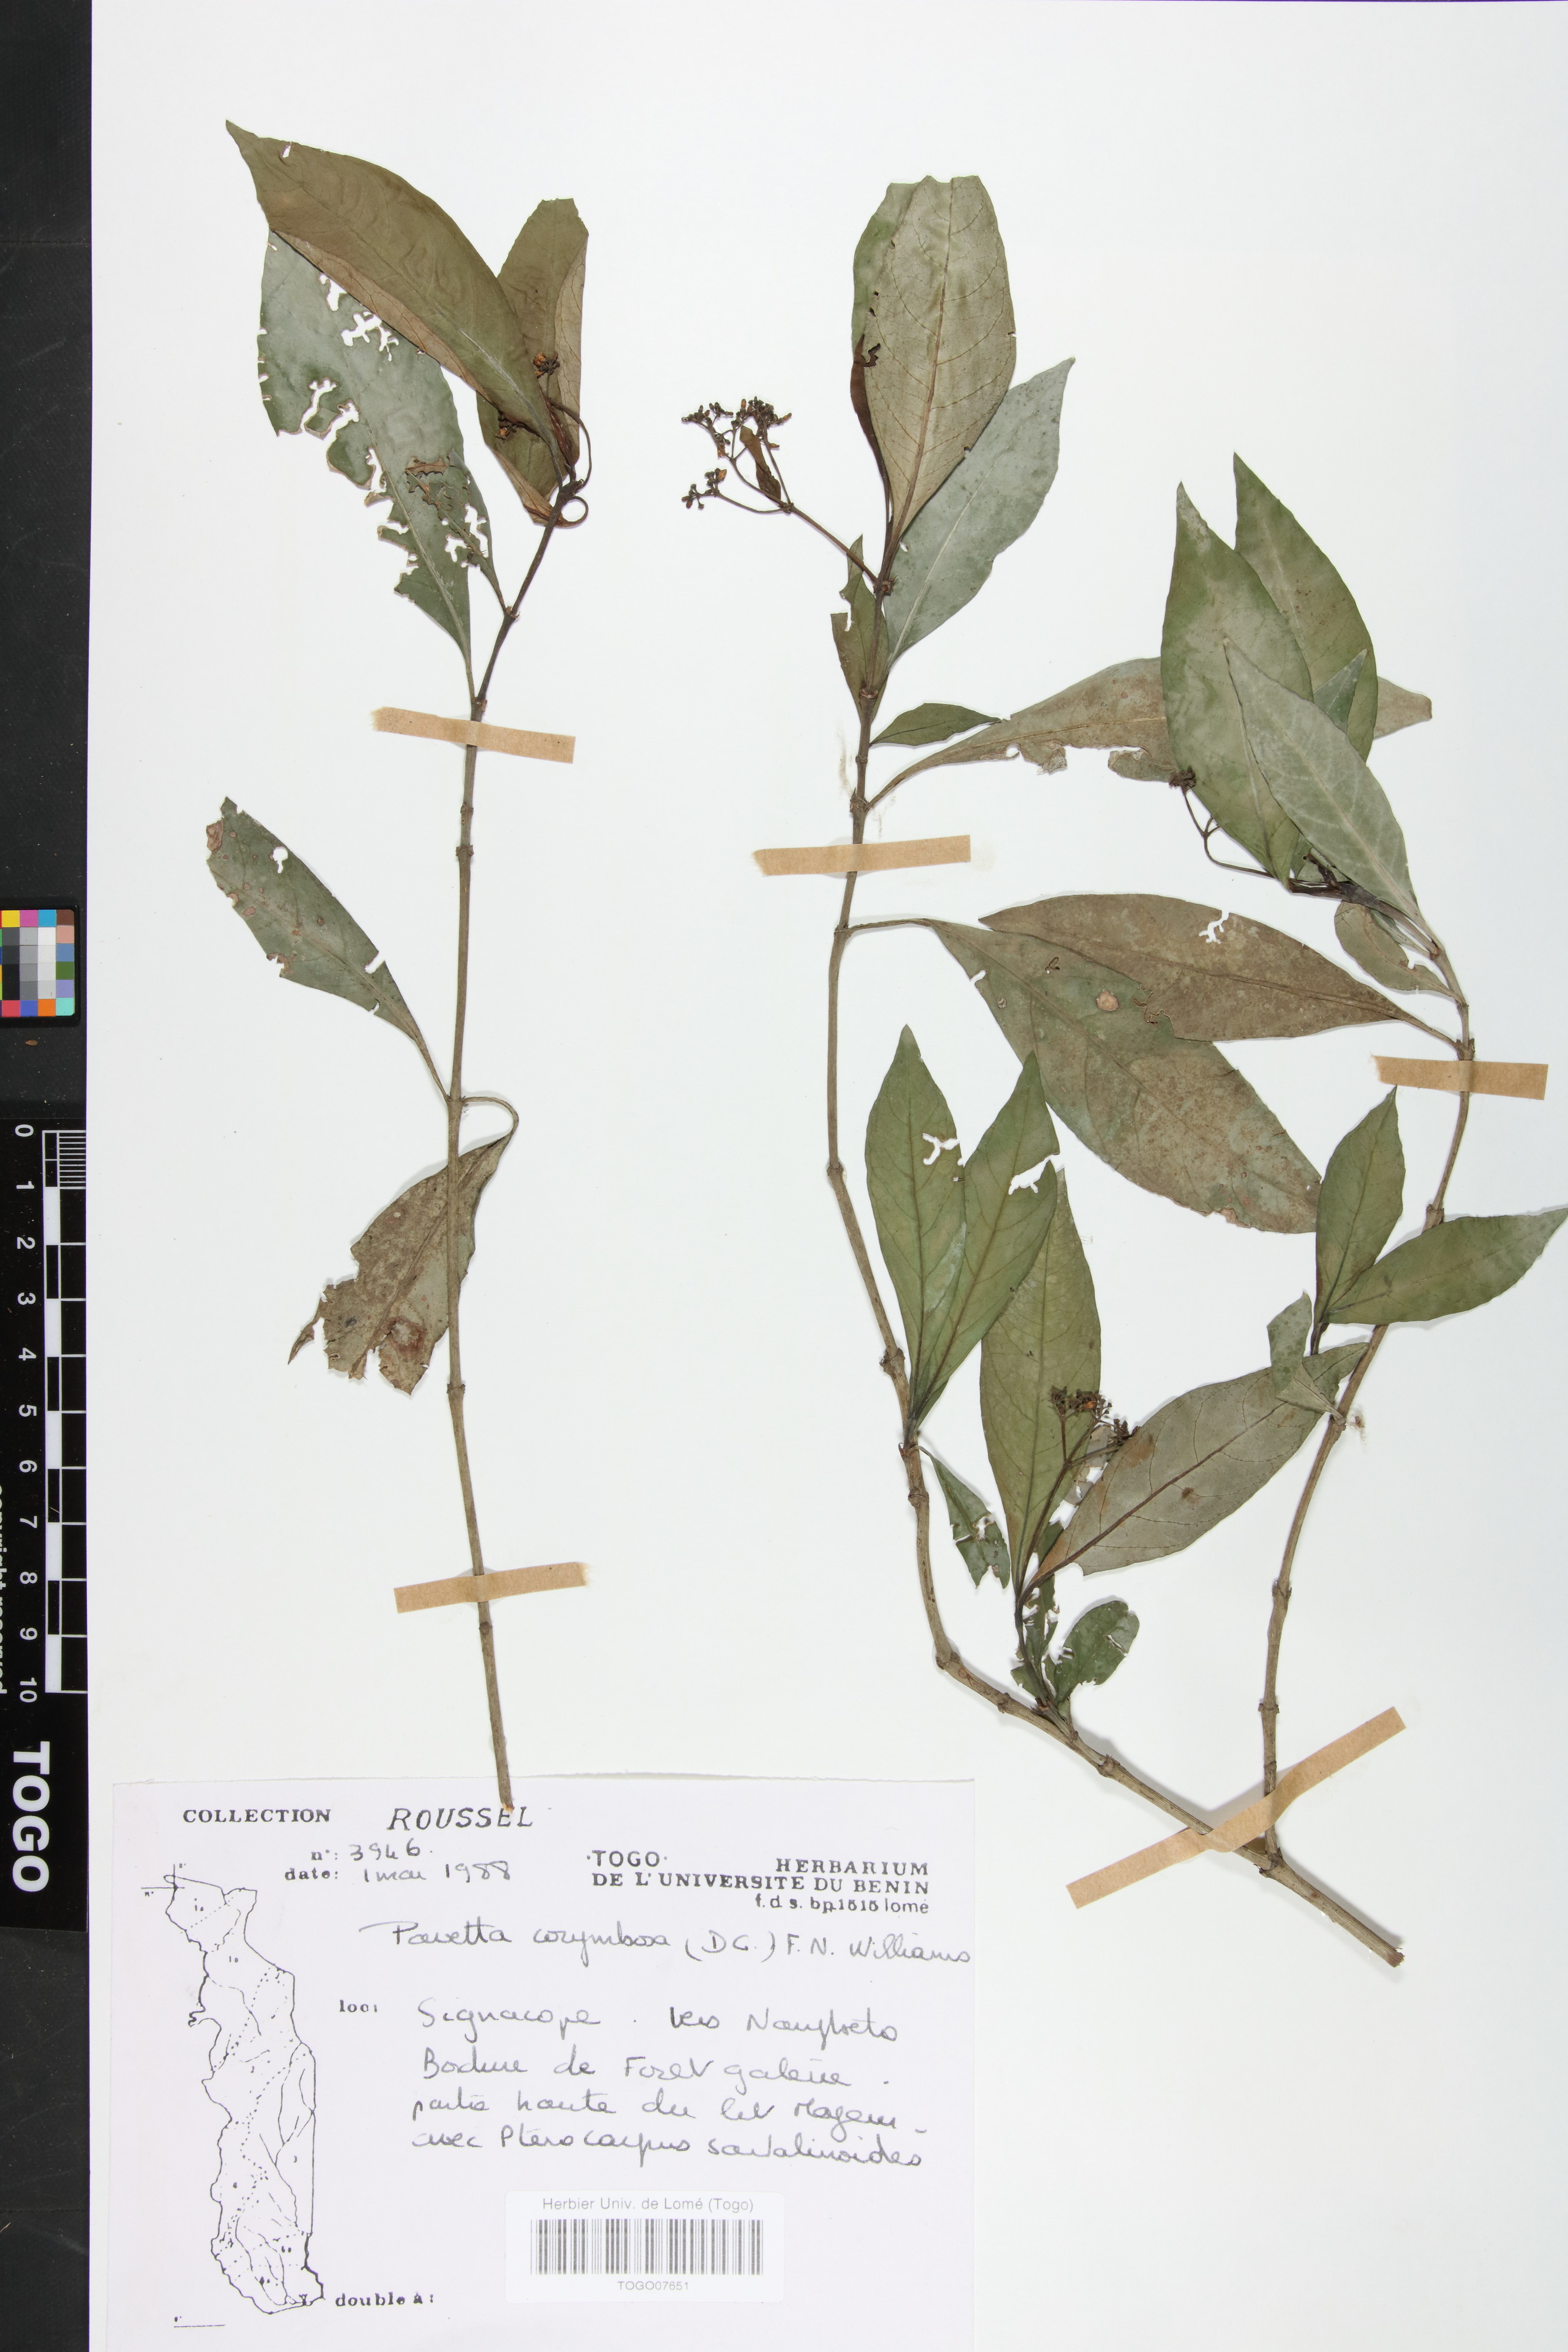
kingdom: Plantae
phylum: Tracheophyta
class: Magnoliopsida
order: Gentianales
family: Rubiaceae
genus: Pavetta
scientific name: Pavetta corymbosa
